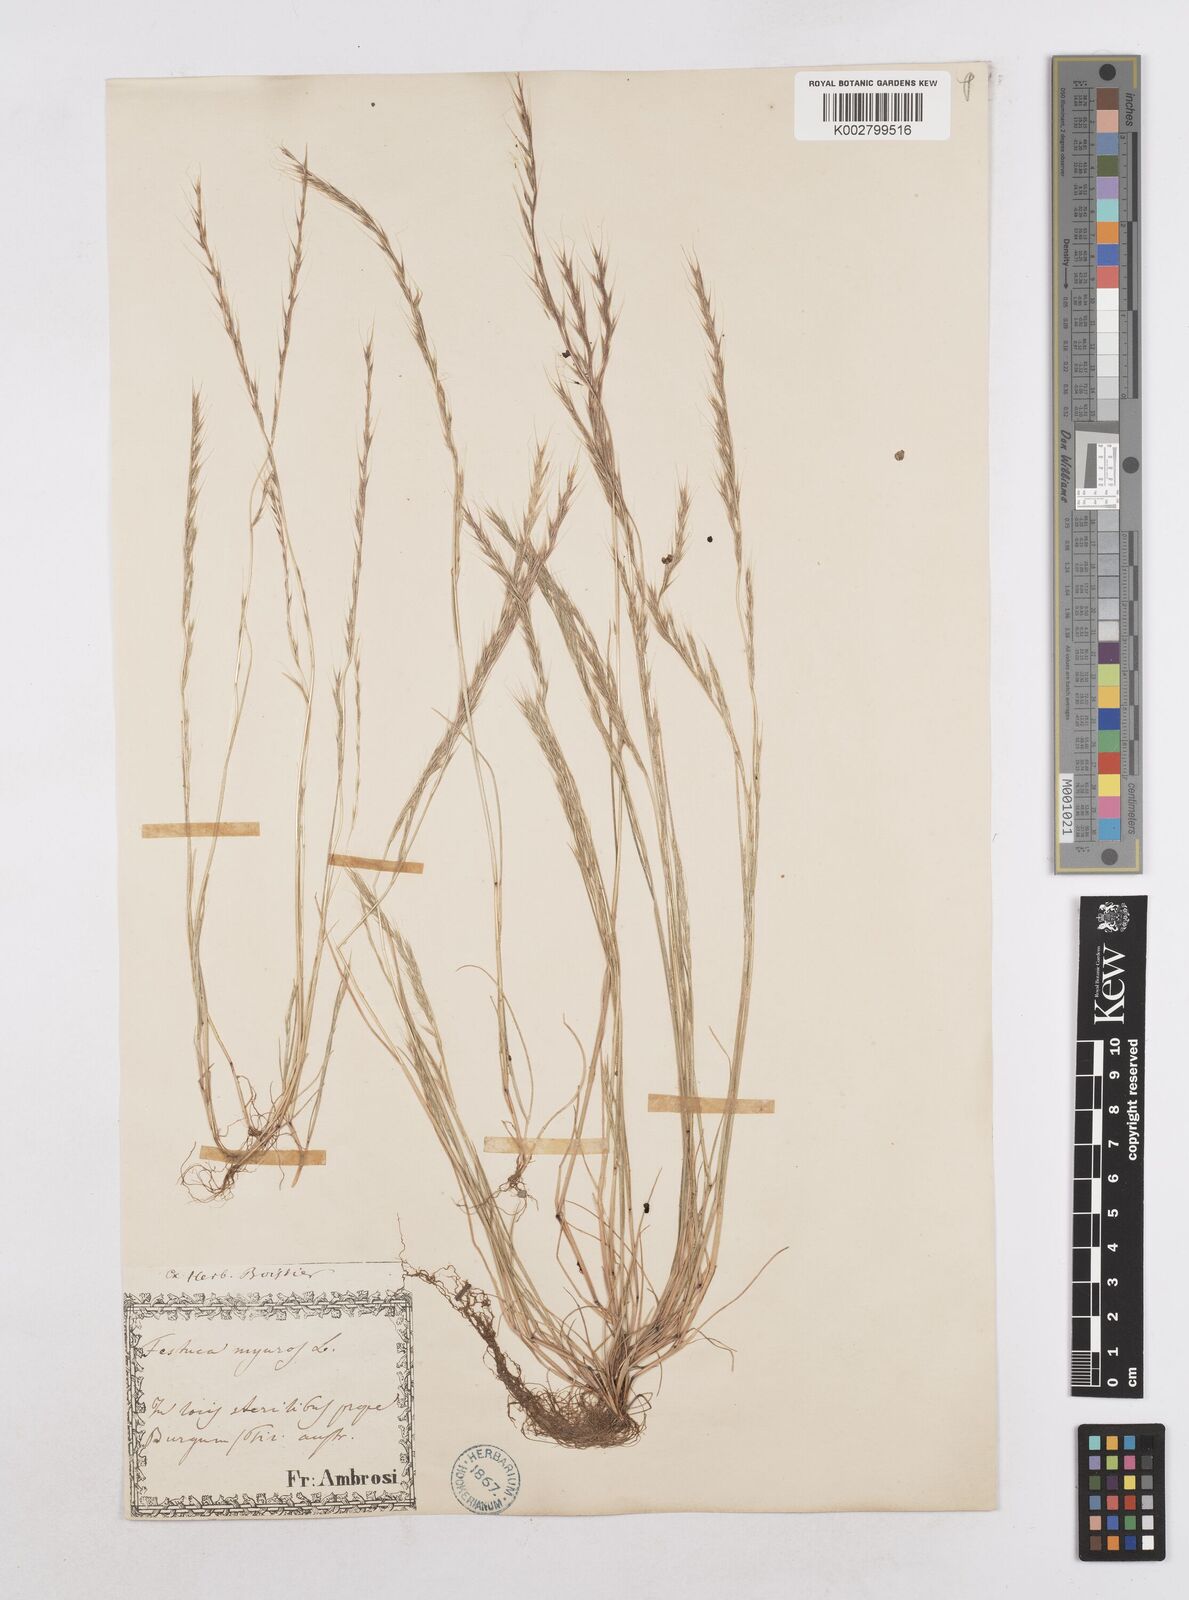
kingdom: Plantae
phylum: Tracheophyta
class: Liliopsida
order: Poales
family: Poaceae
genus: Festuca
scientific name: Festuca myuros
